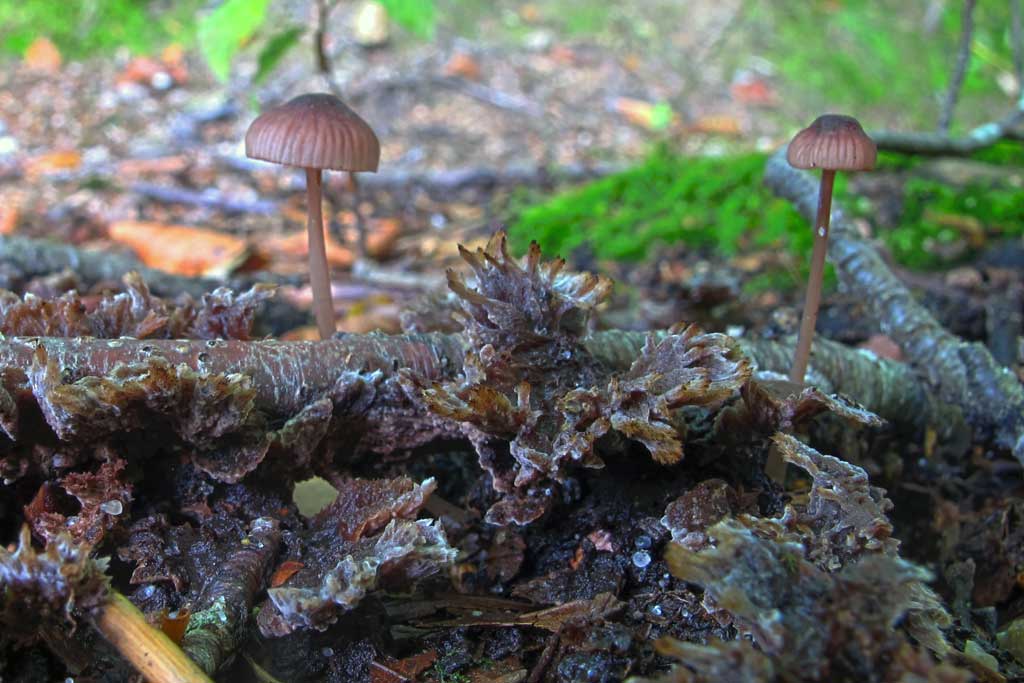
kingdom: Fungi
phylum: Basidiomycota
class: Agaricomycetes
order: Agaricales
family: Mycenaceae
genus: Mycena
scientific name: Mycena sanguinolenta
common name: rødmælket huesvamp
